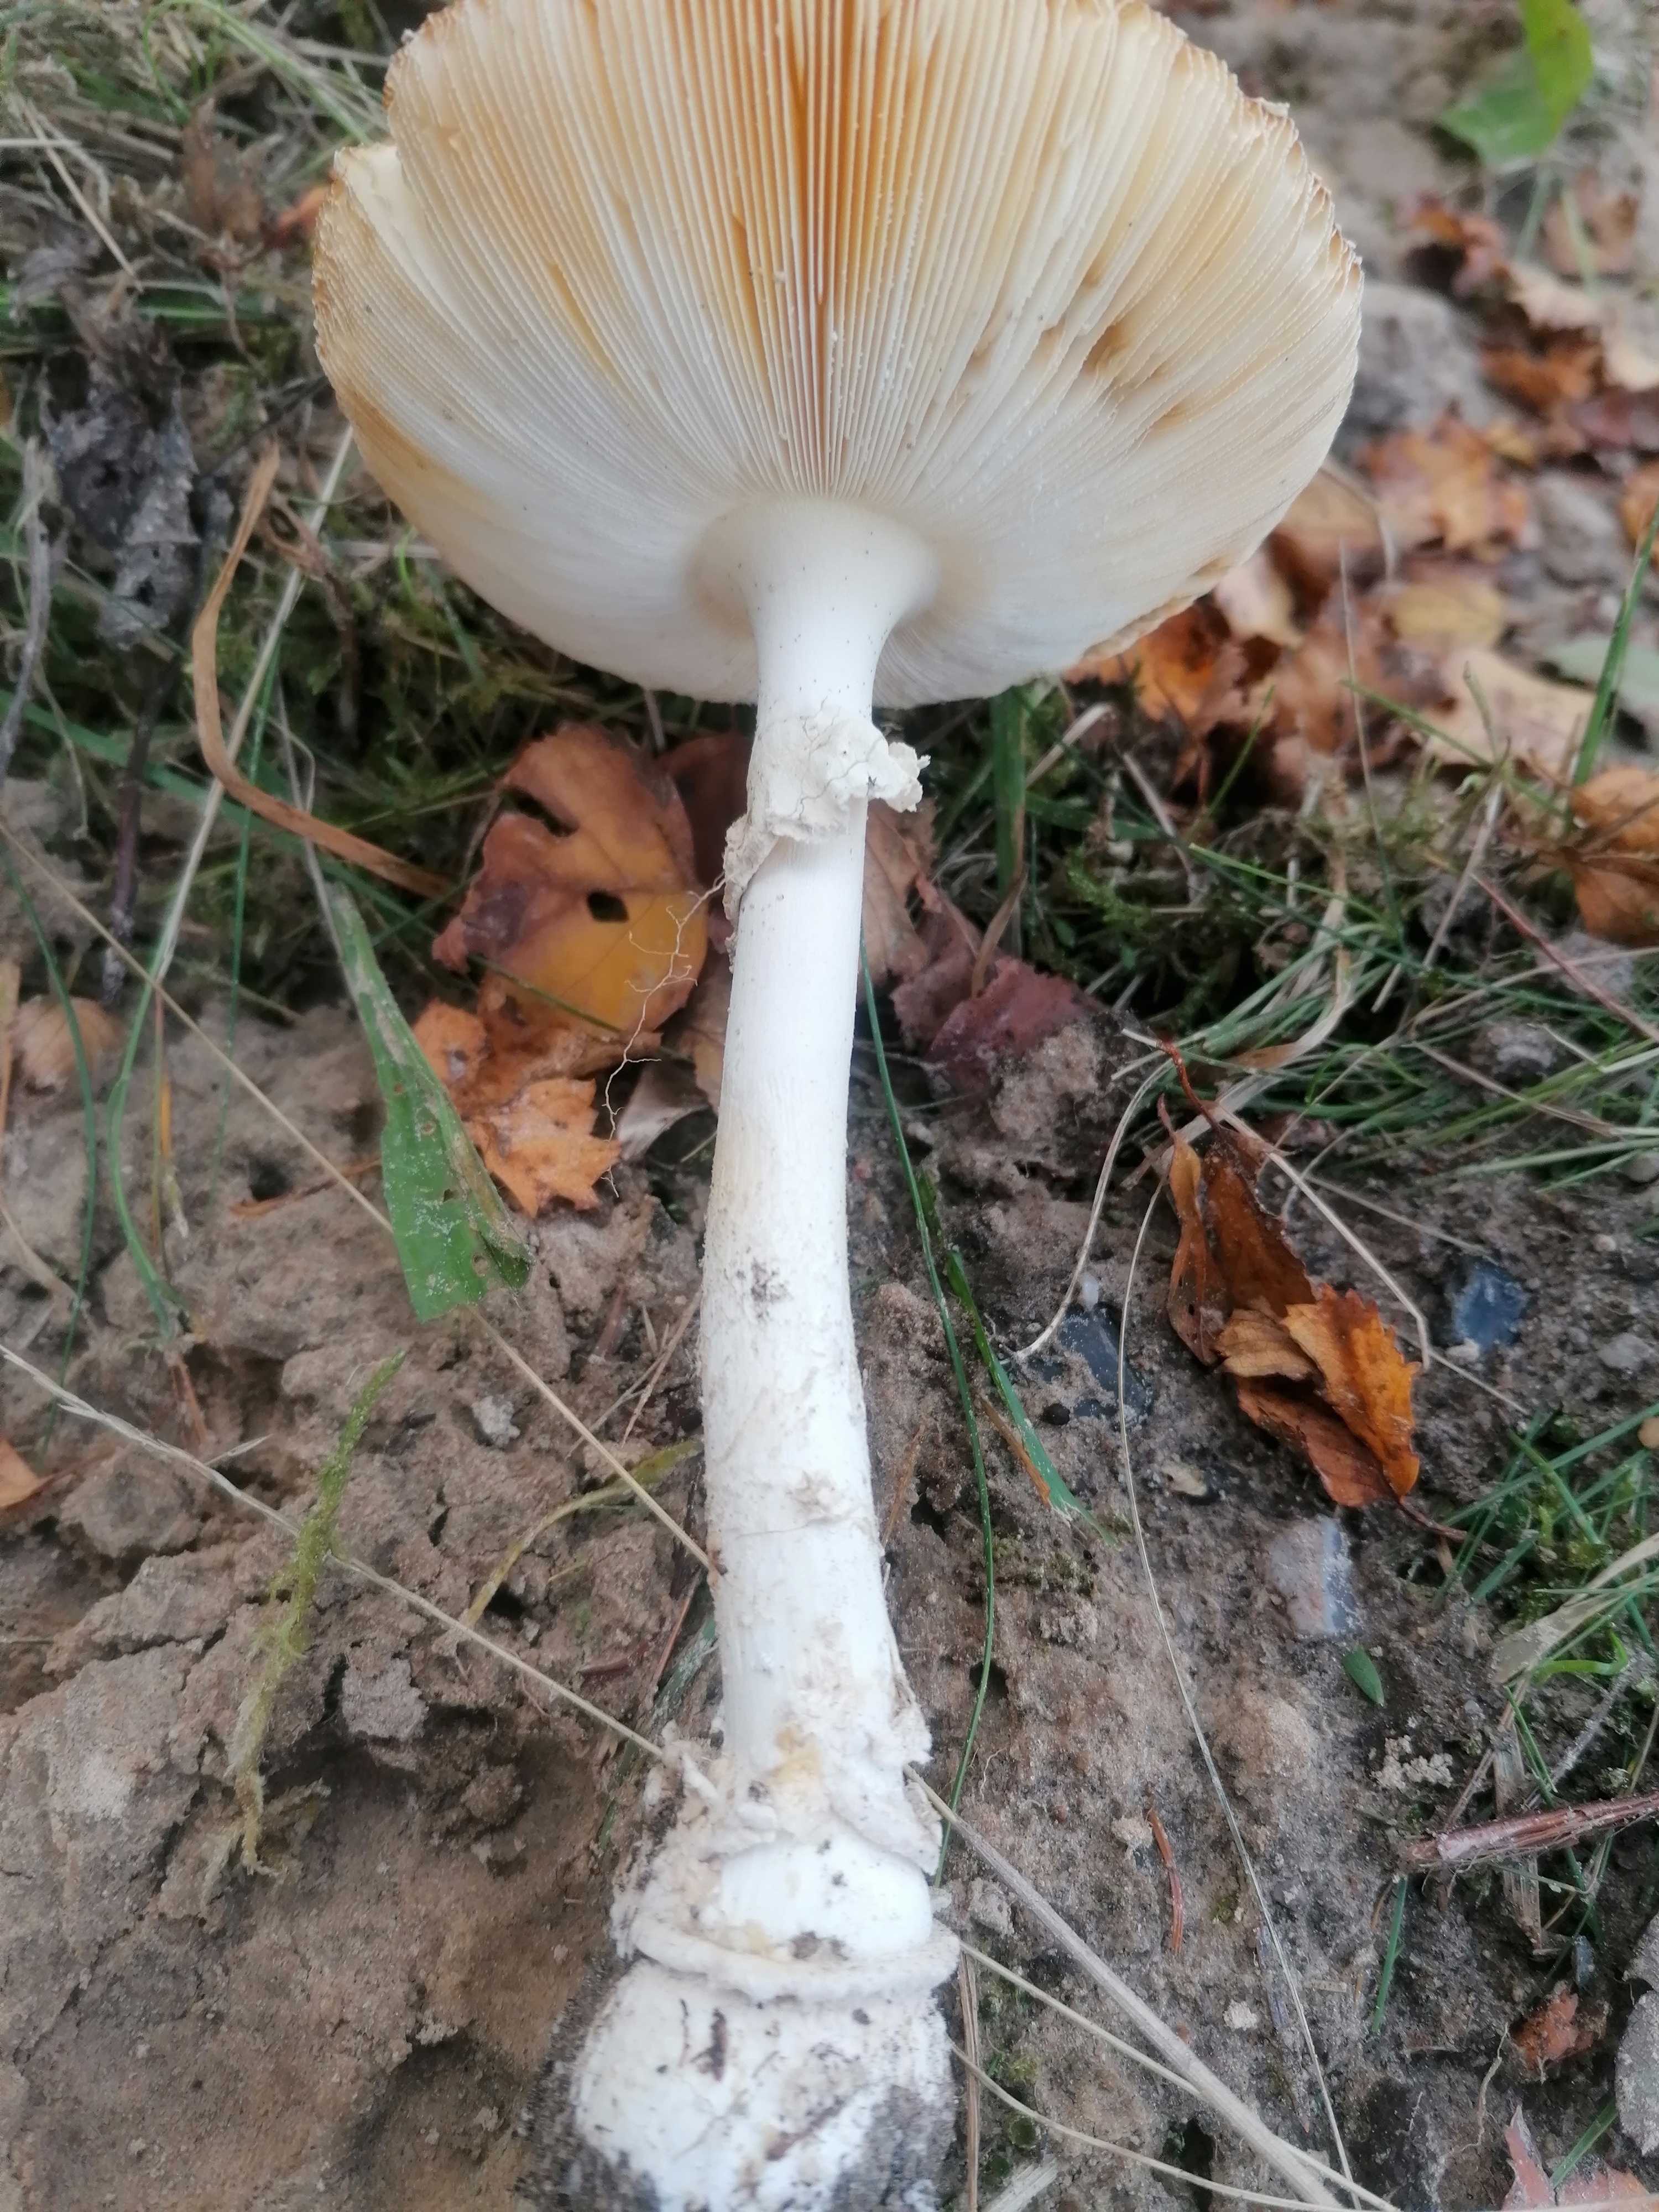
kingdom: Fungi
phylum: Basidiomycota
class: Agaricomycetes
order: Agaricales
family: Amanitaceae
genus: Amanita
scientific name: Amanita fulva
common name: brun kam-fluesvamp
